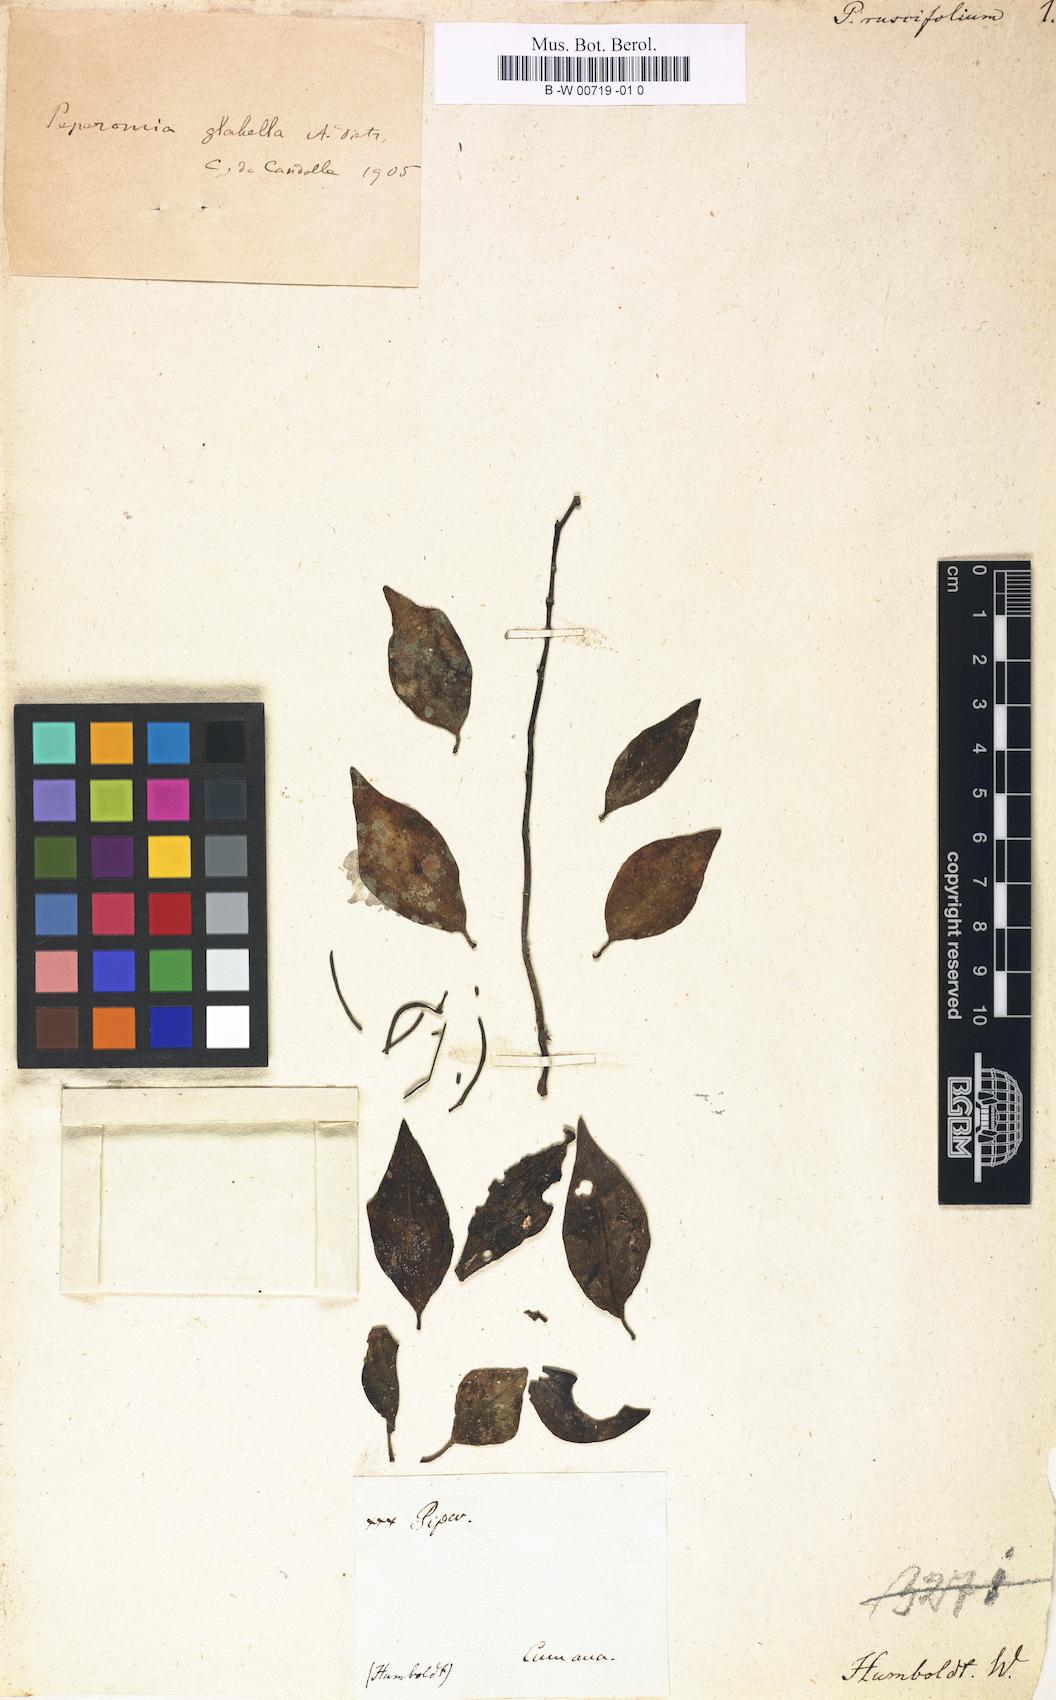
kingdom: Plantae
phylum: Tracheophyta
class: Magnoliopsida
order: Piperales
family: Piperaceae
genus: Peperomia
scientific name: Peperomia ruscifolia
